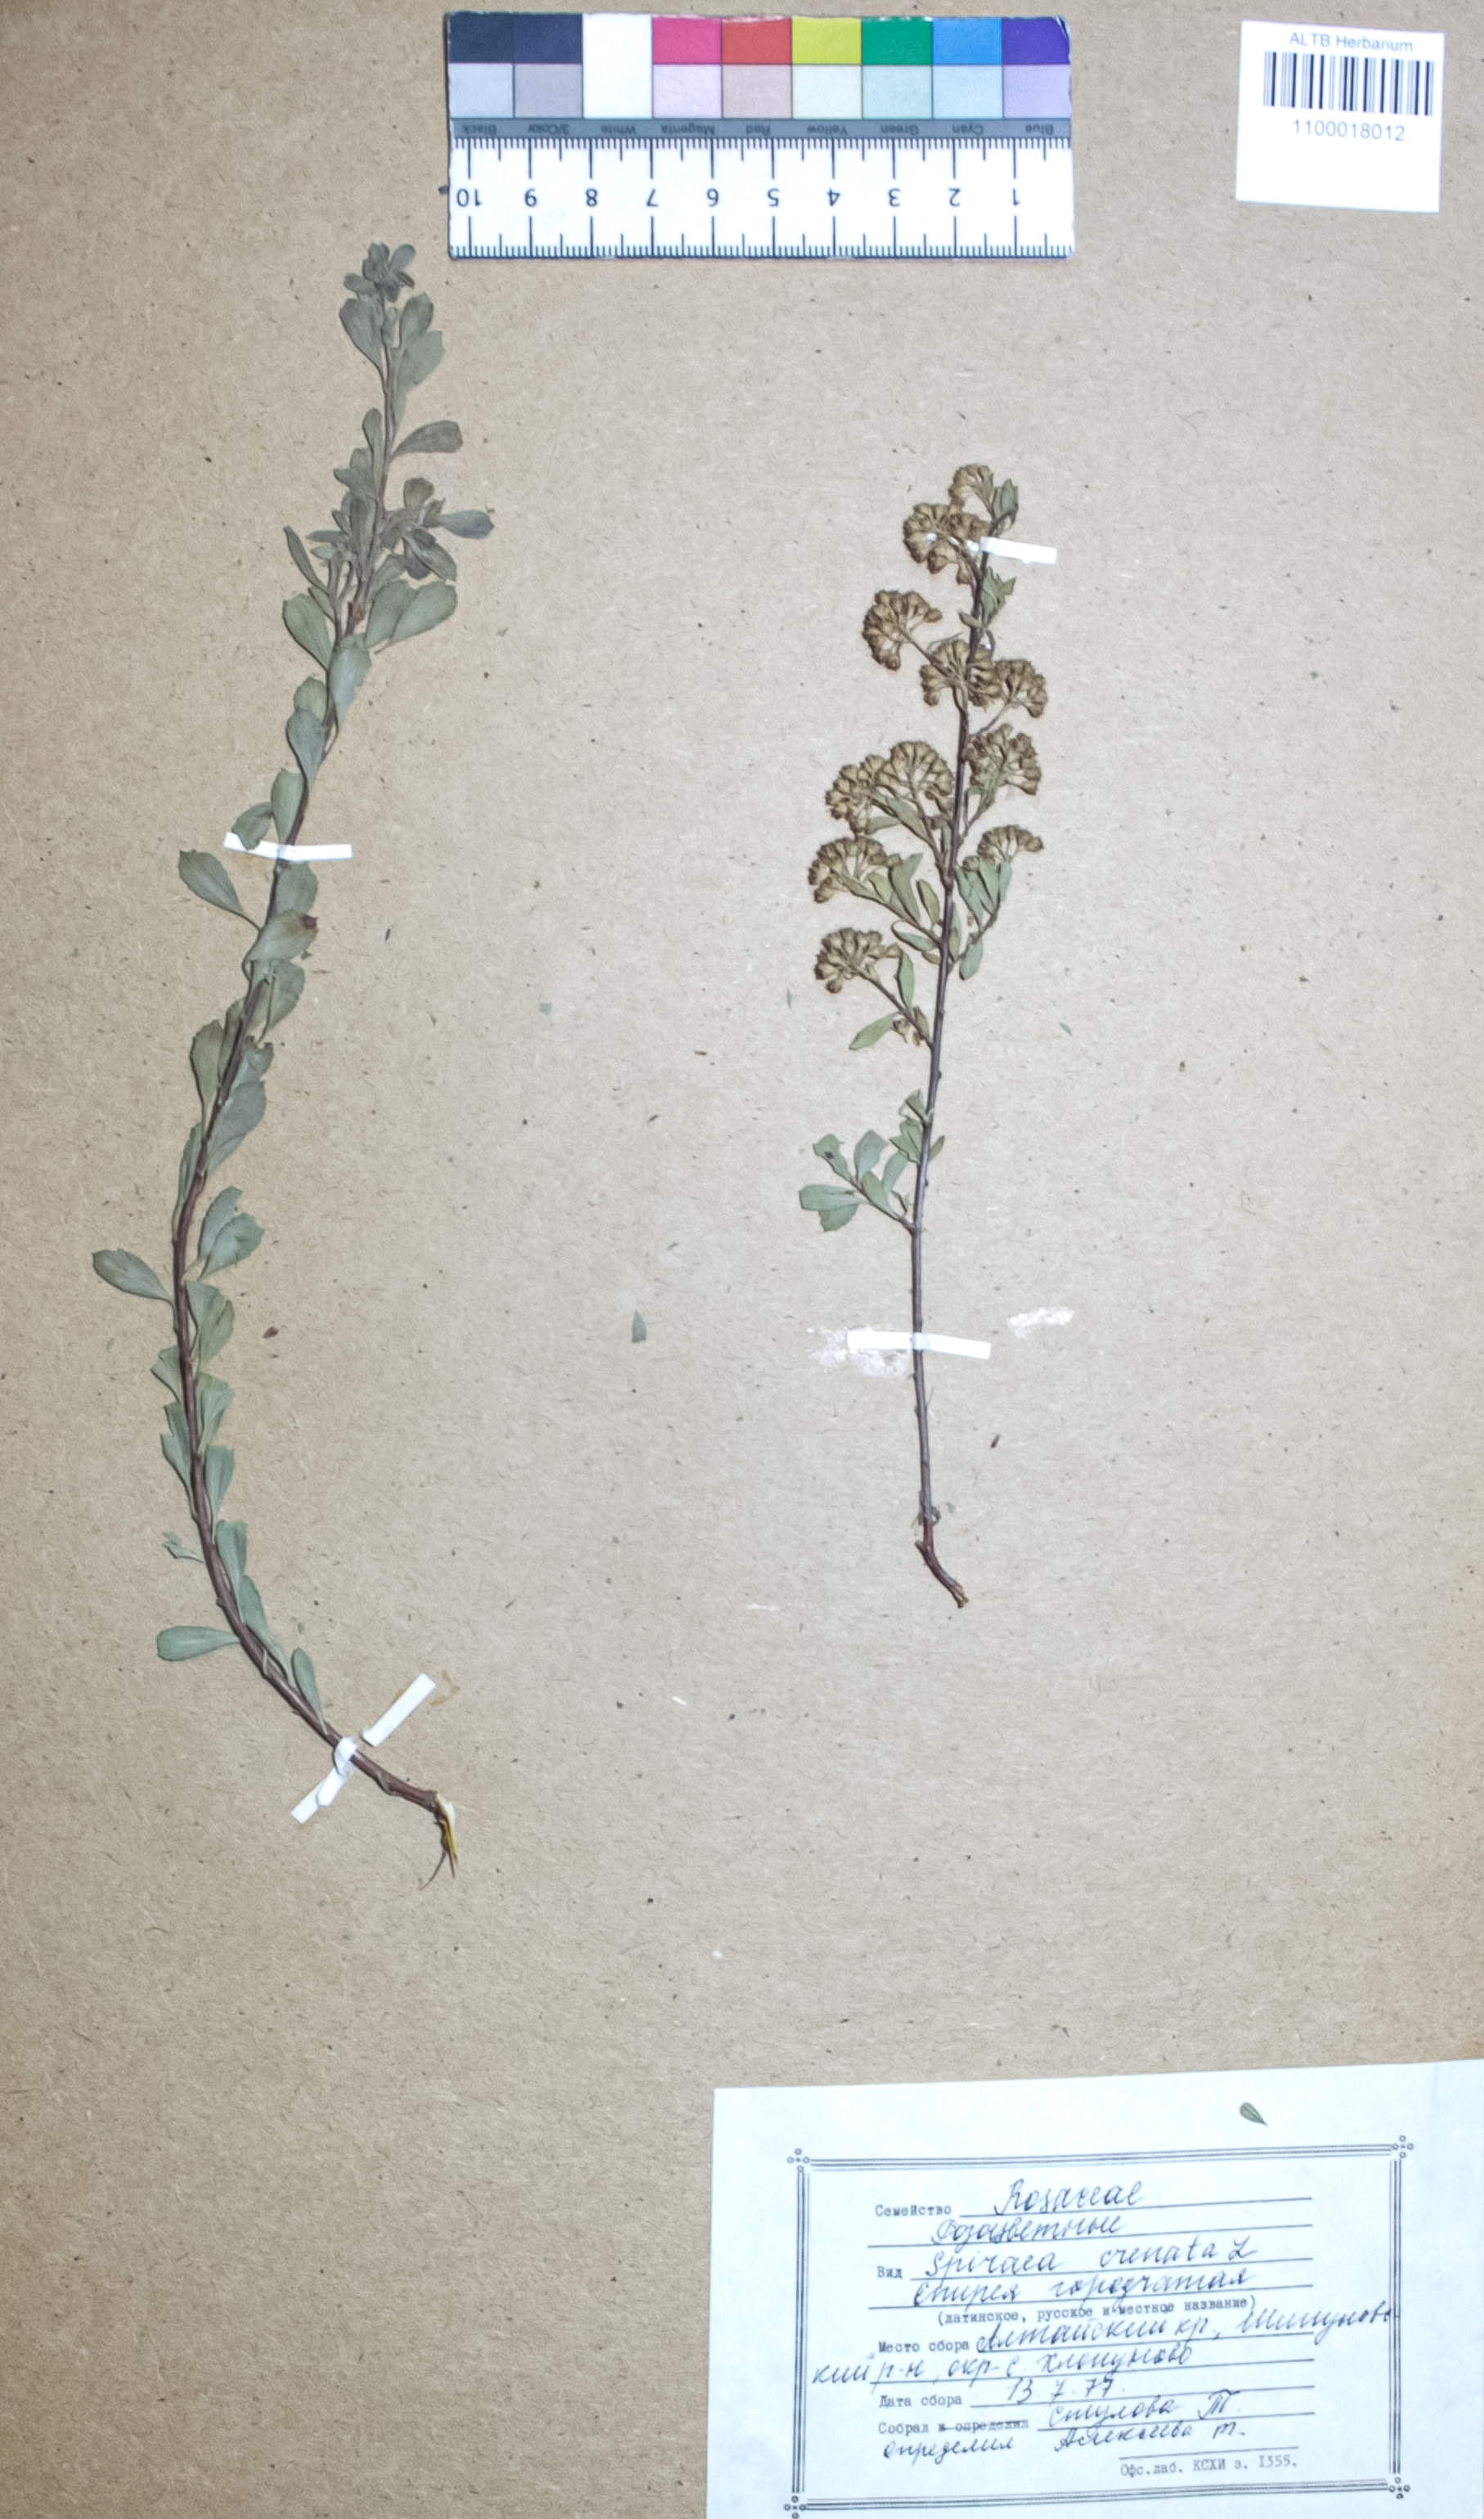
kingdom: Plantae
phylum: Tracheophyta
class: Magnoliopsida
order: Rosales
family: Rosaceae
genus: Spiraea
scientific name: Spiraea crenata
